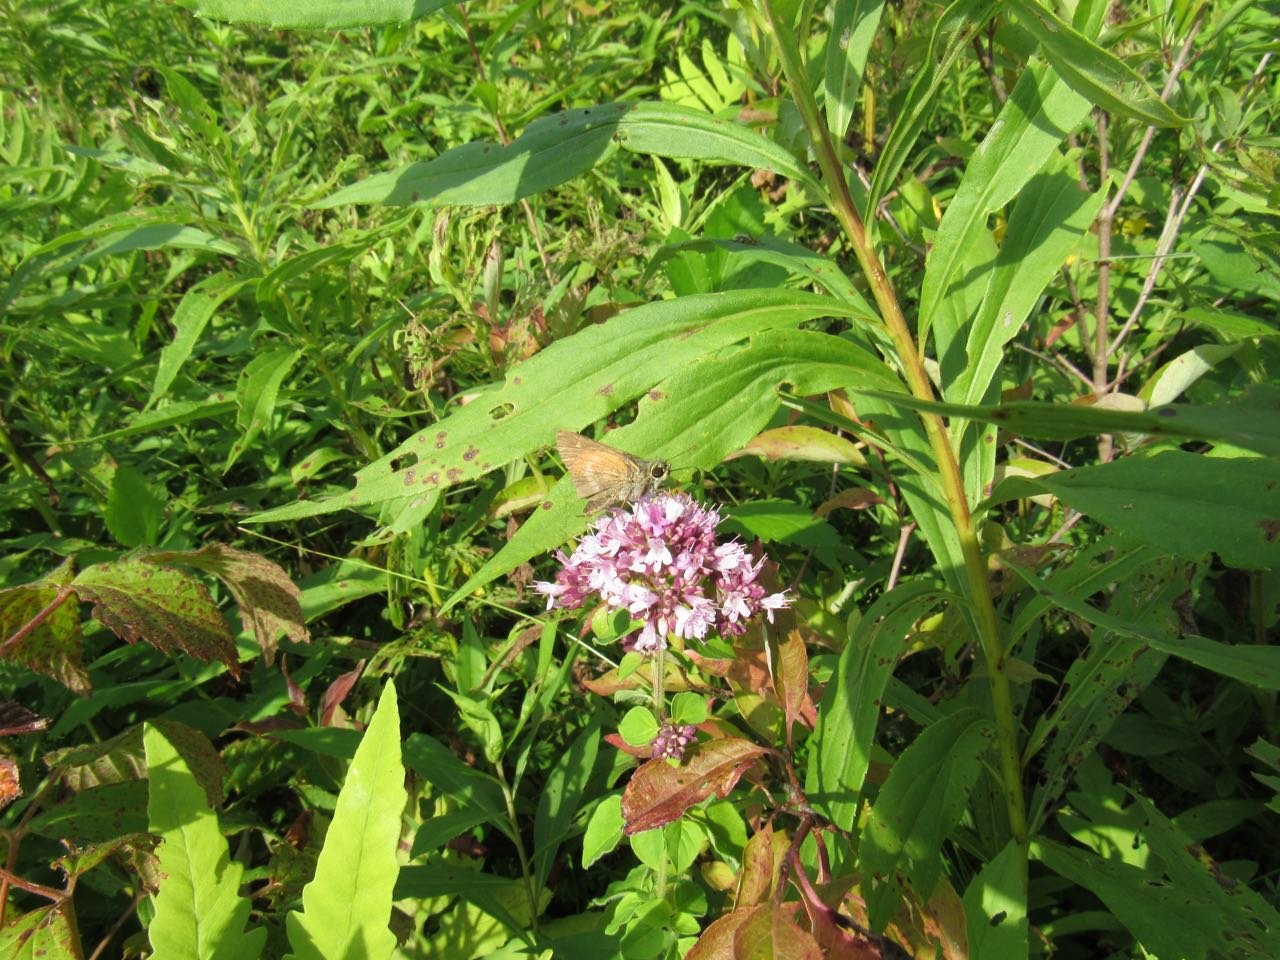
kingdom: Animalia
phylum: Arthropoda
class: Insecta
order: Lepidoptera
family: Hesperiidae
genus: Polites
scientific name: Polites egeremet
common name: Northern Broken-Dash
